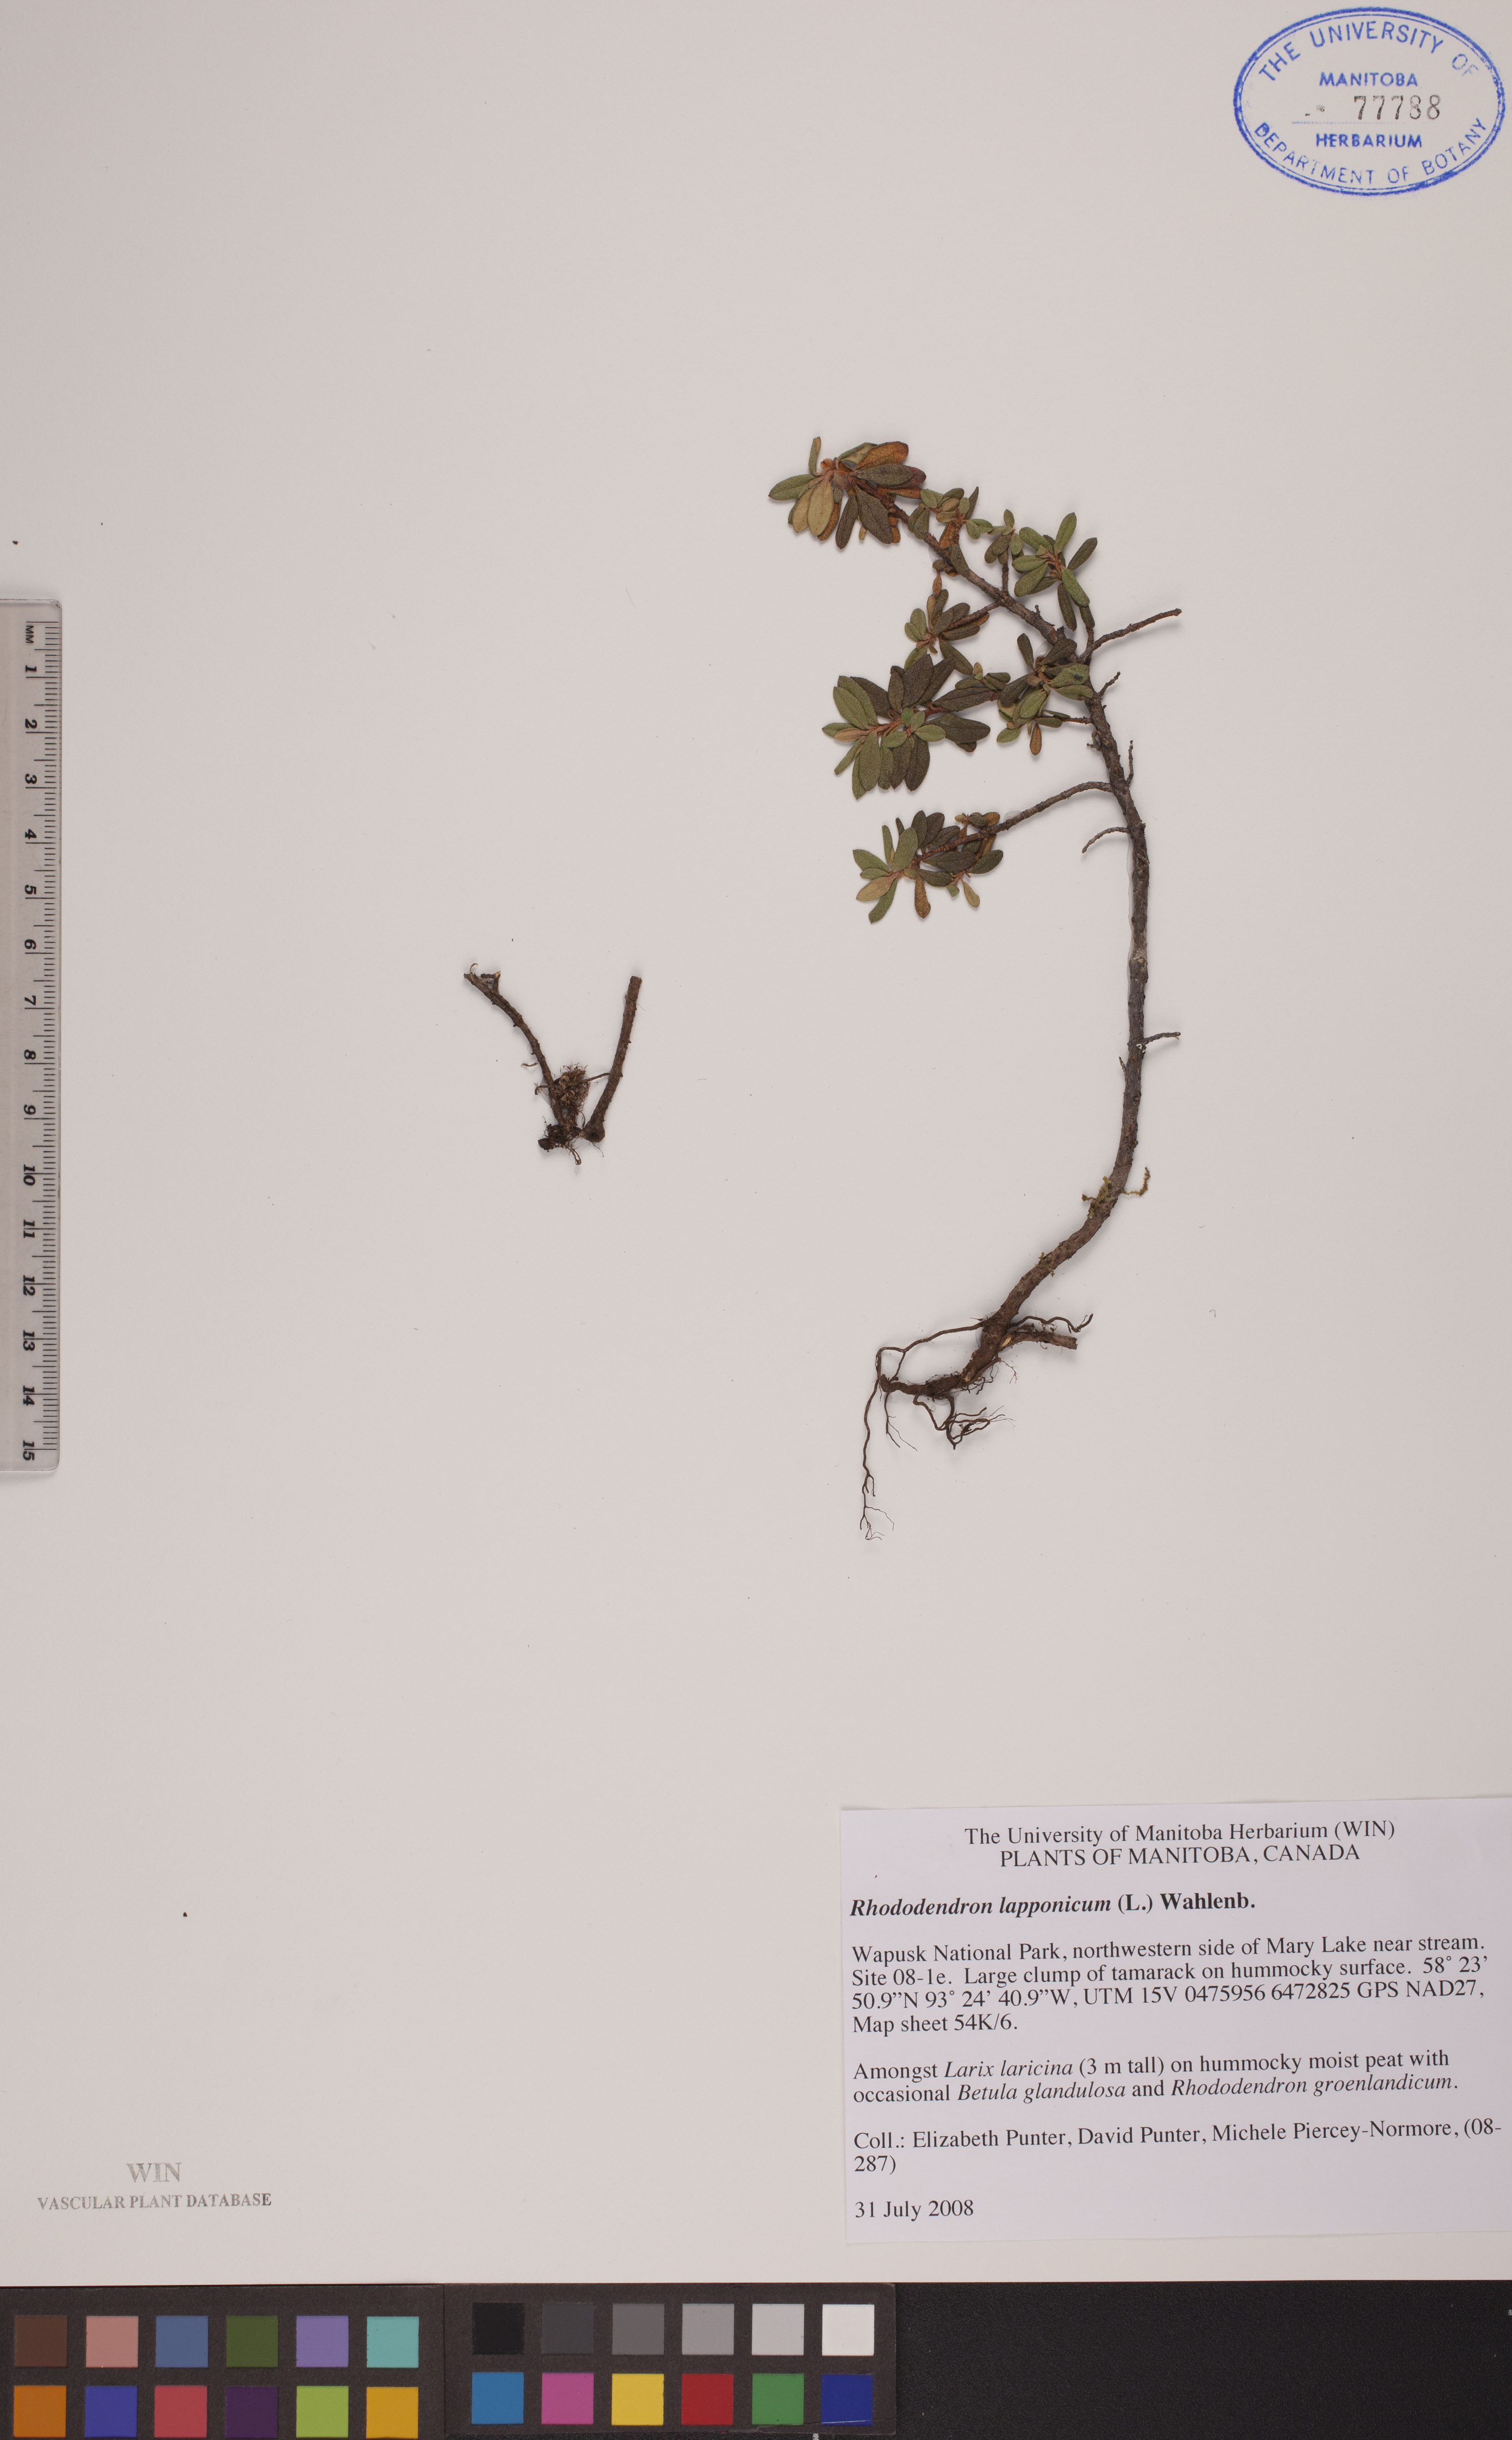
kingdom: Plantae
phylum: Tracheophyta
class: Magnoliopsida
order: Ericales
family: Ericaceae
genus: Rhododendron
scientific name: Rhododendron lapponicum
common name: Lapland rhododendron
